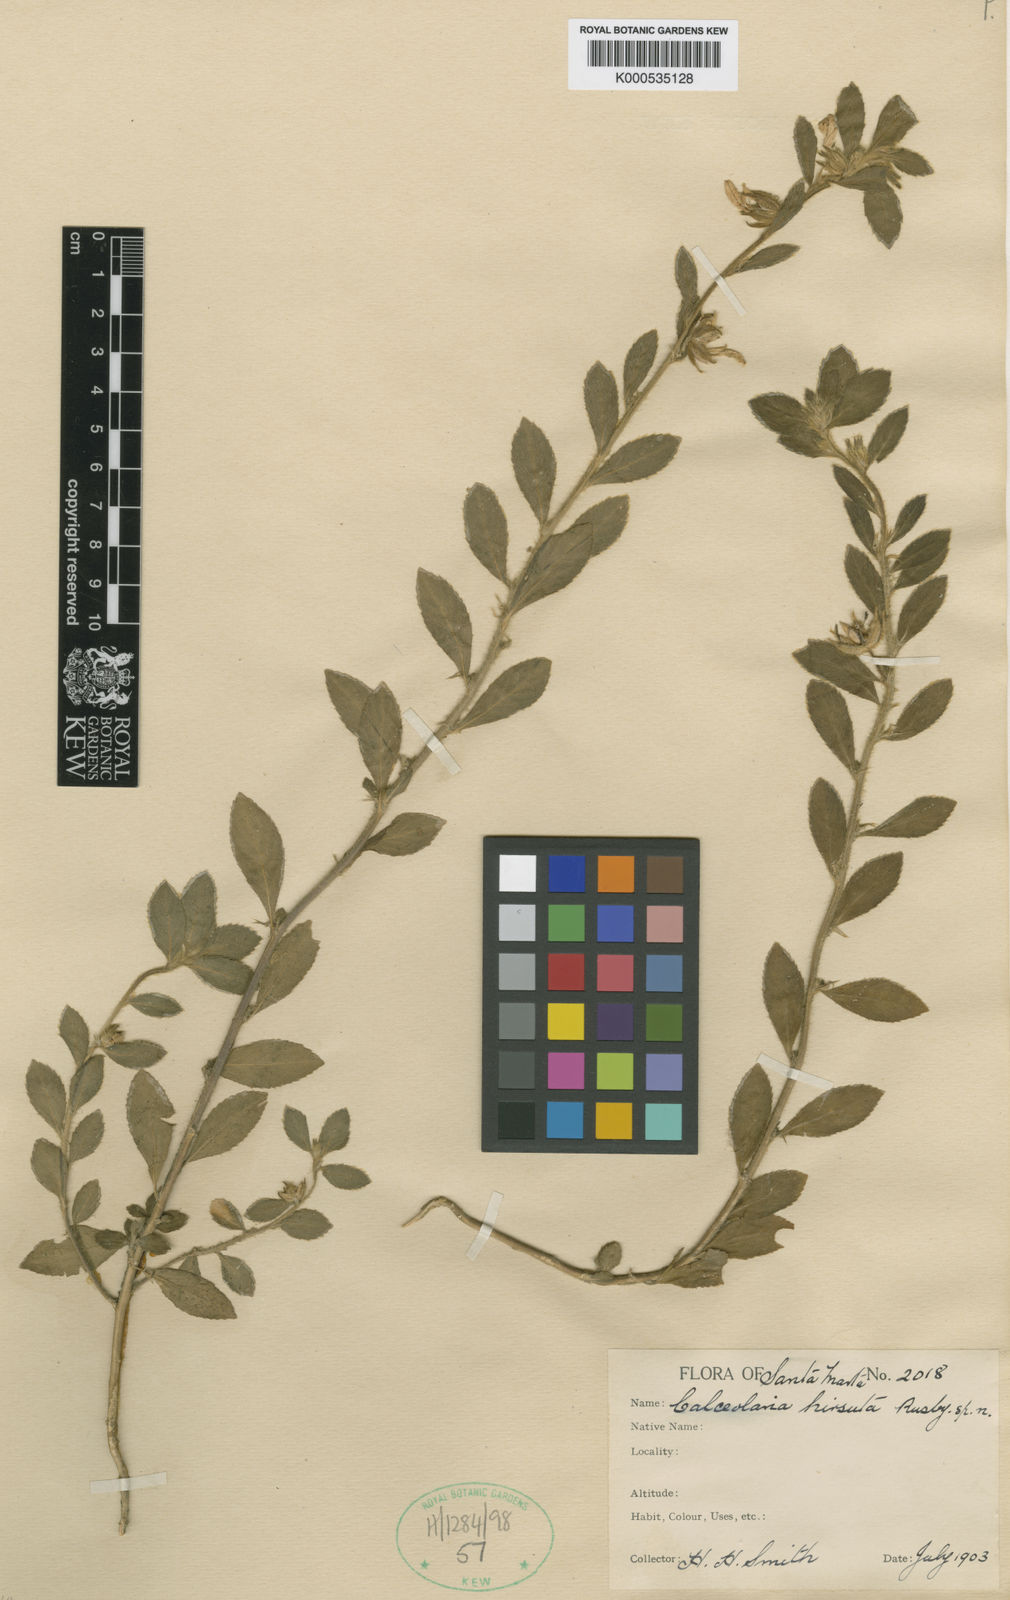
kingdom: Plantae
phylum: Tracheophyta
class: Magnoliopsida
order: Malpighiales
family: Violaceae
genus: Hybanthus
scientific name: Hybanthus
